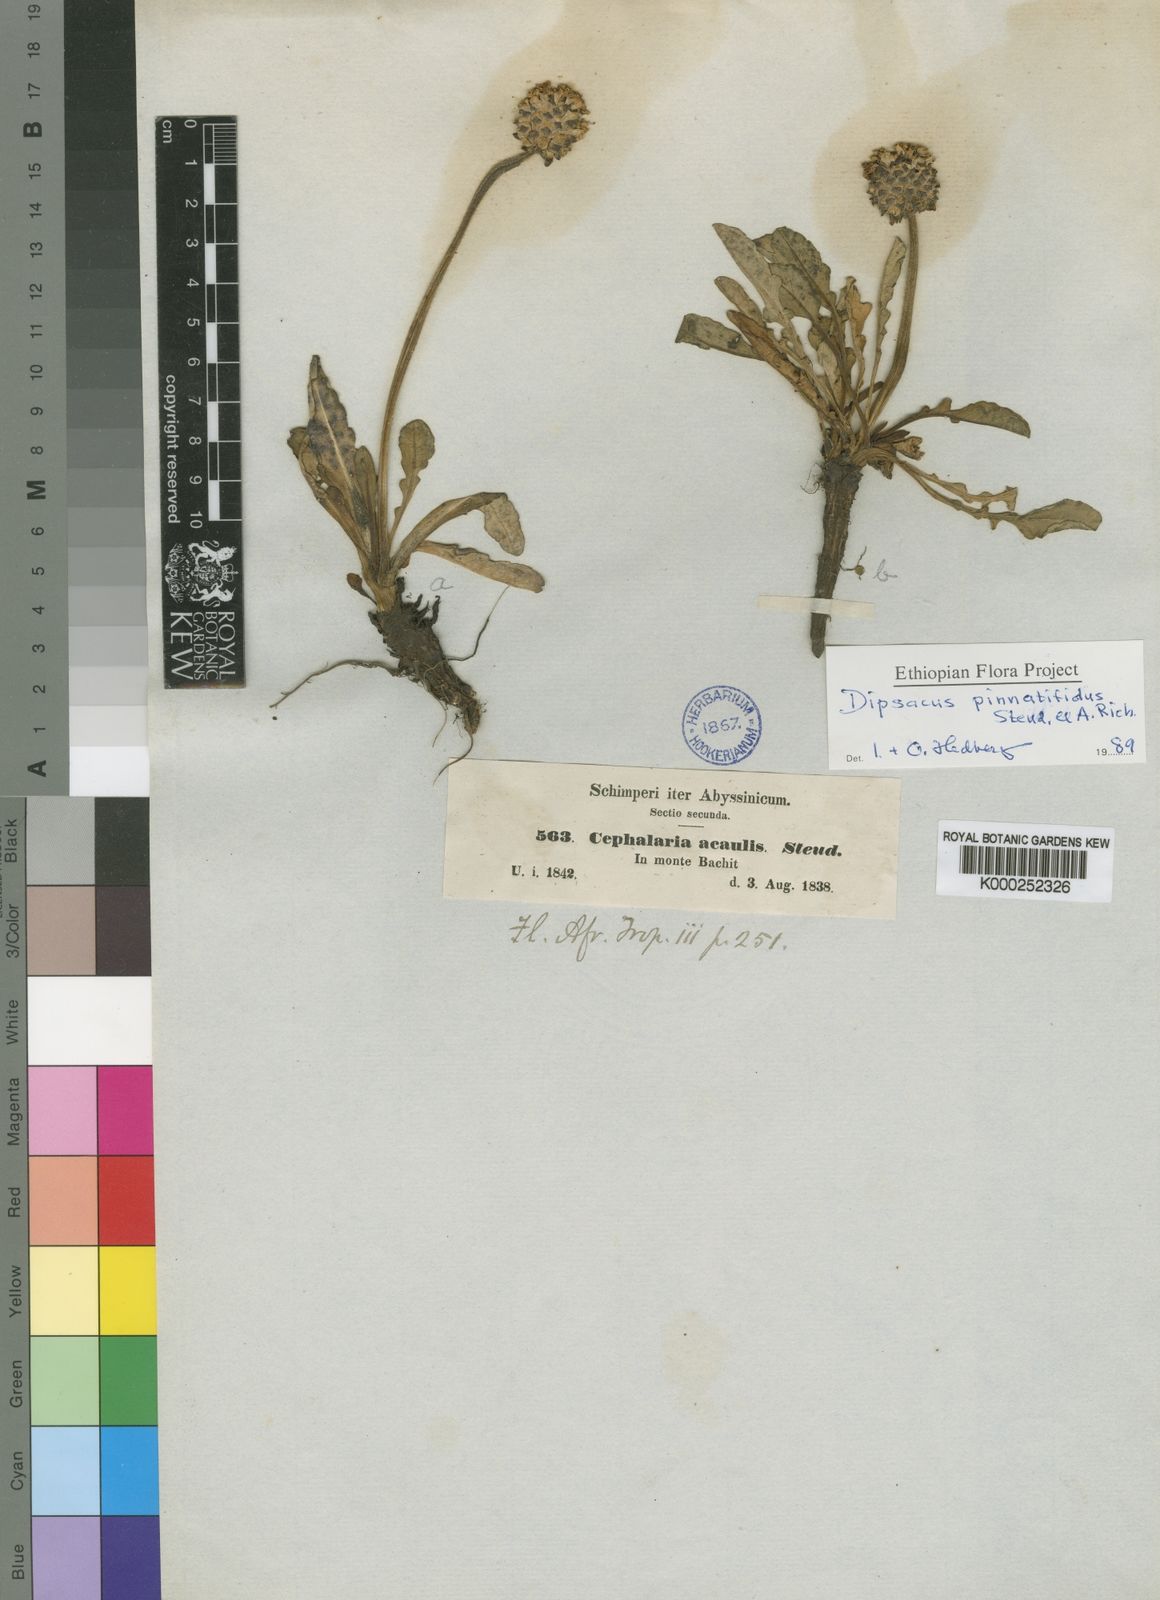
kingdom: Plantae
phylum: Tracheophyta
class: Magnoliopsida
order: Dipsacales
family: Caprifoliaceae
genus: Dipsacus
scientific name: Dipsacus pinnatifidus
